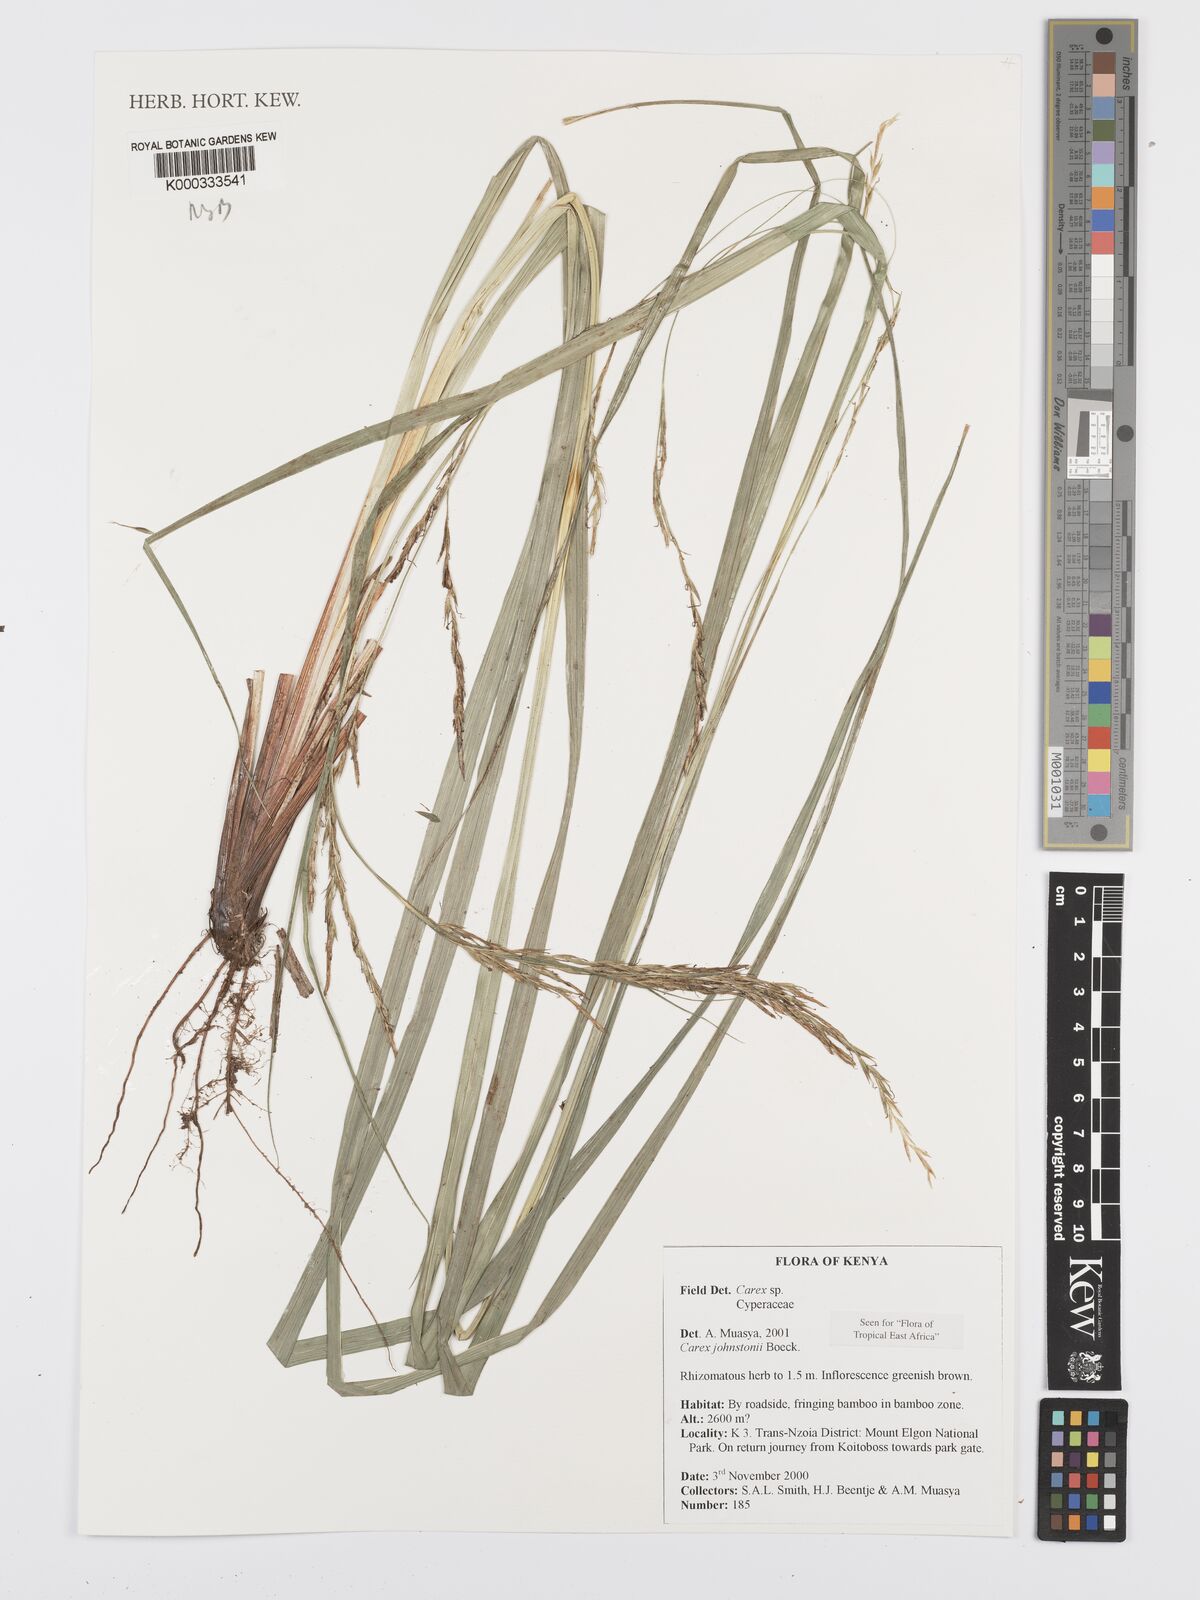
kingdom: Plantae
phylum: Tracheophyta
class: Liliopsida
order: Poales
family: Cyperaceae
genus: Carex
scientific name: Carex johnstonii
